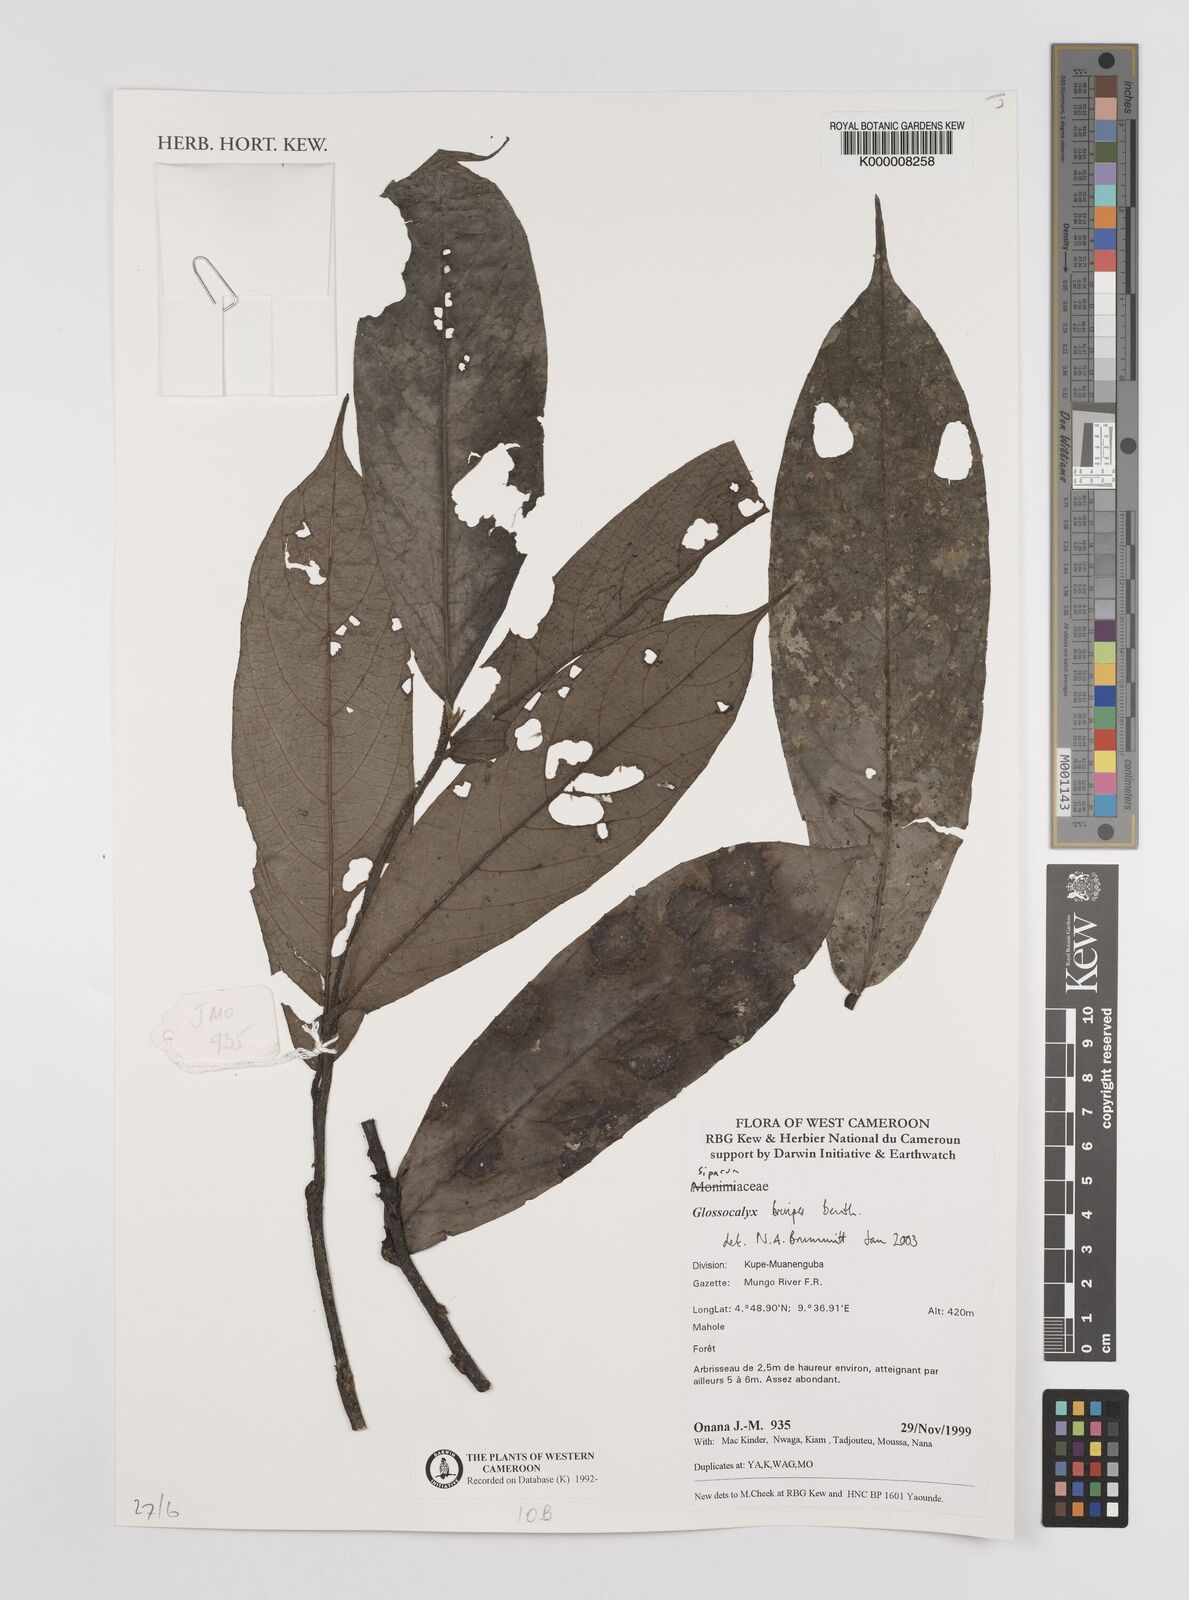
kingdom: Plantae
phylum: Tracheophyta
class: Magnoliopsida
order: Laurales
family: Siparunaceae
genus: Glossocalyx
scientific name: Glossocalyx brevipes
